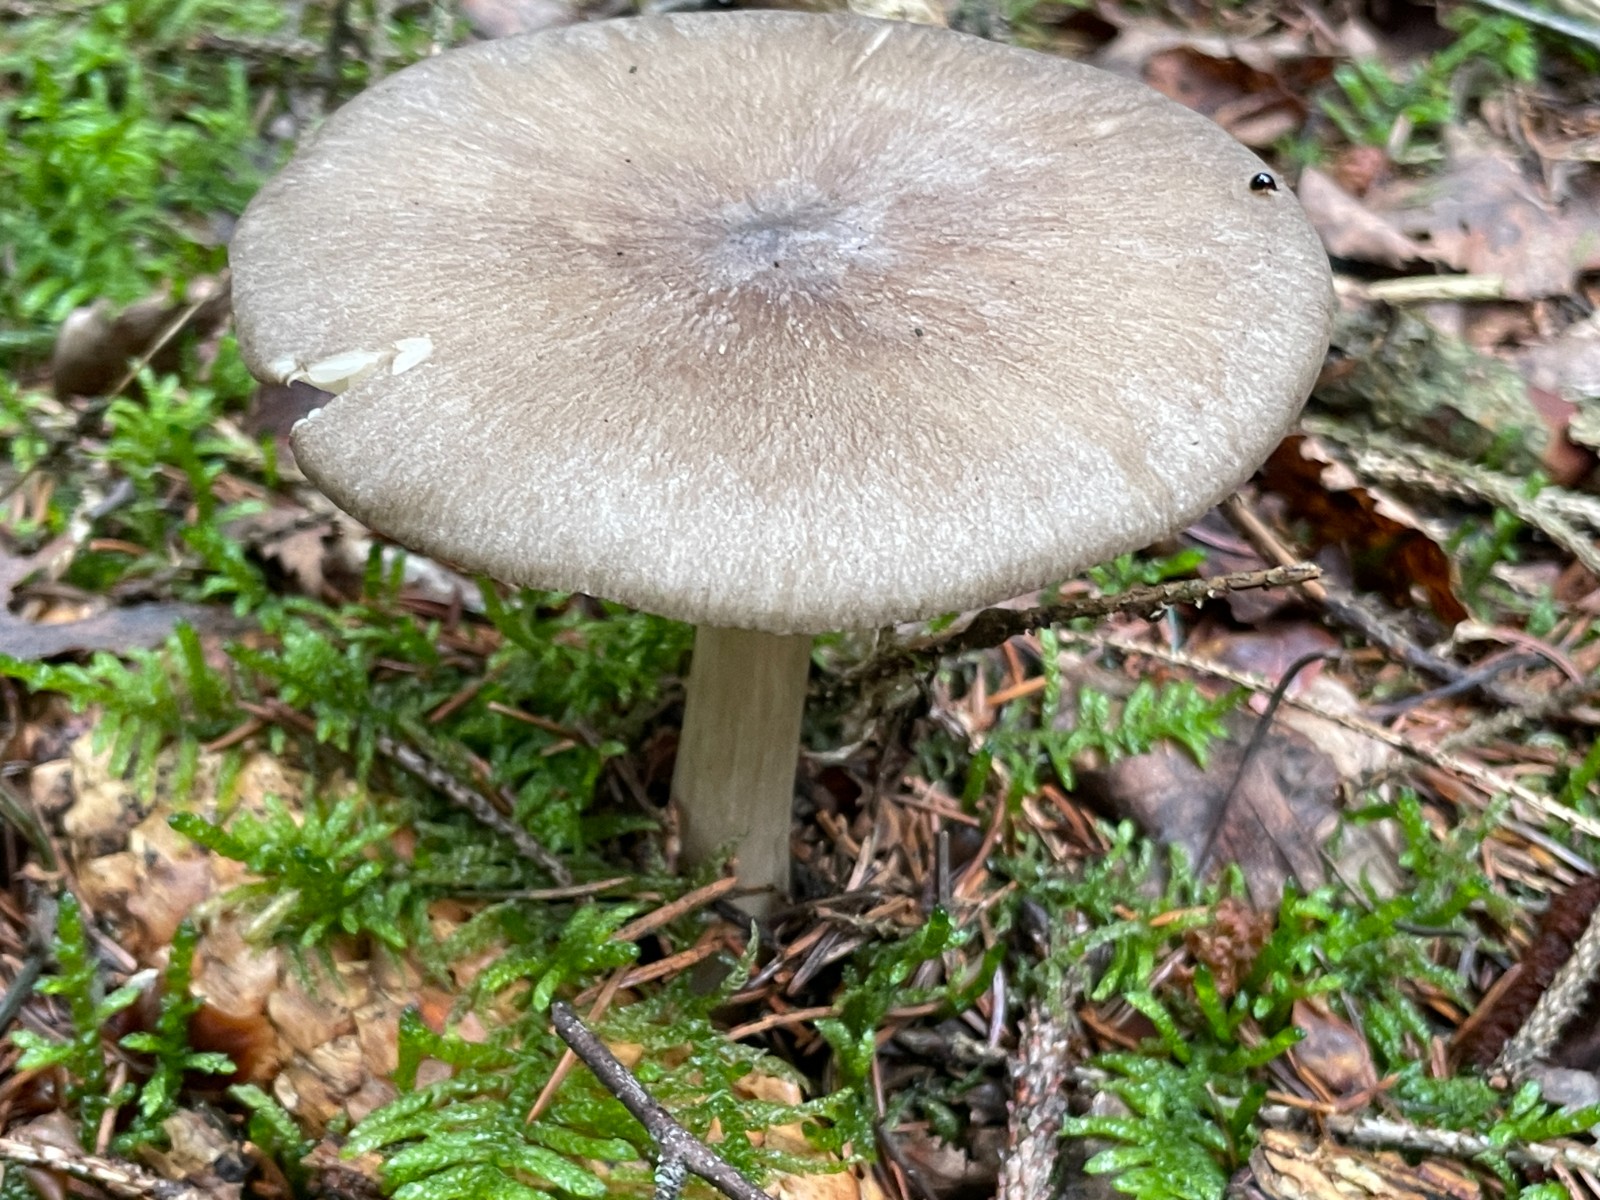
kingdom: Fungi
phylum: Basidiomycota
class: Agaricomycetes
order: Agaricales
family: Tricholomataceae
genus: Megacollybia
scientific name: Megacollybia platyphylla
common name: bredbladet væbnerhat
